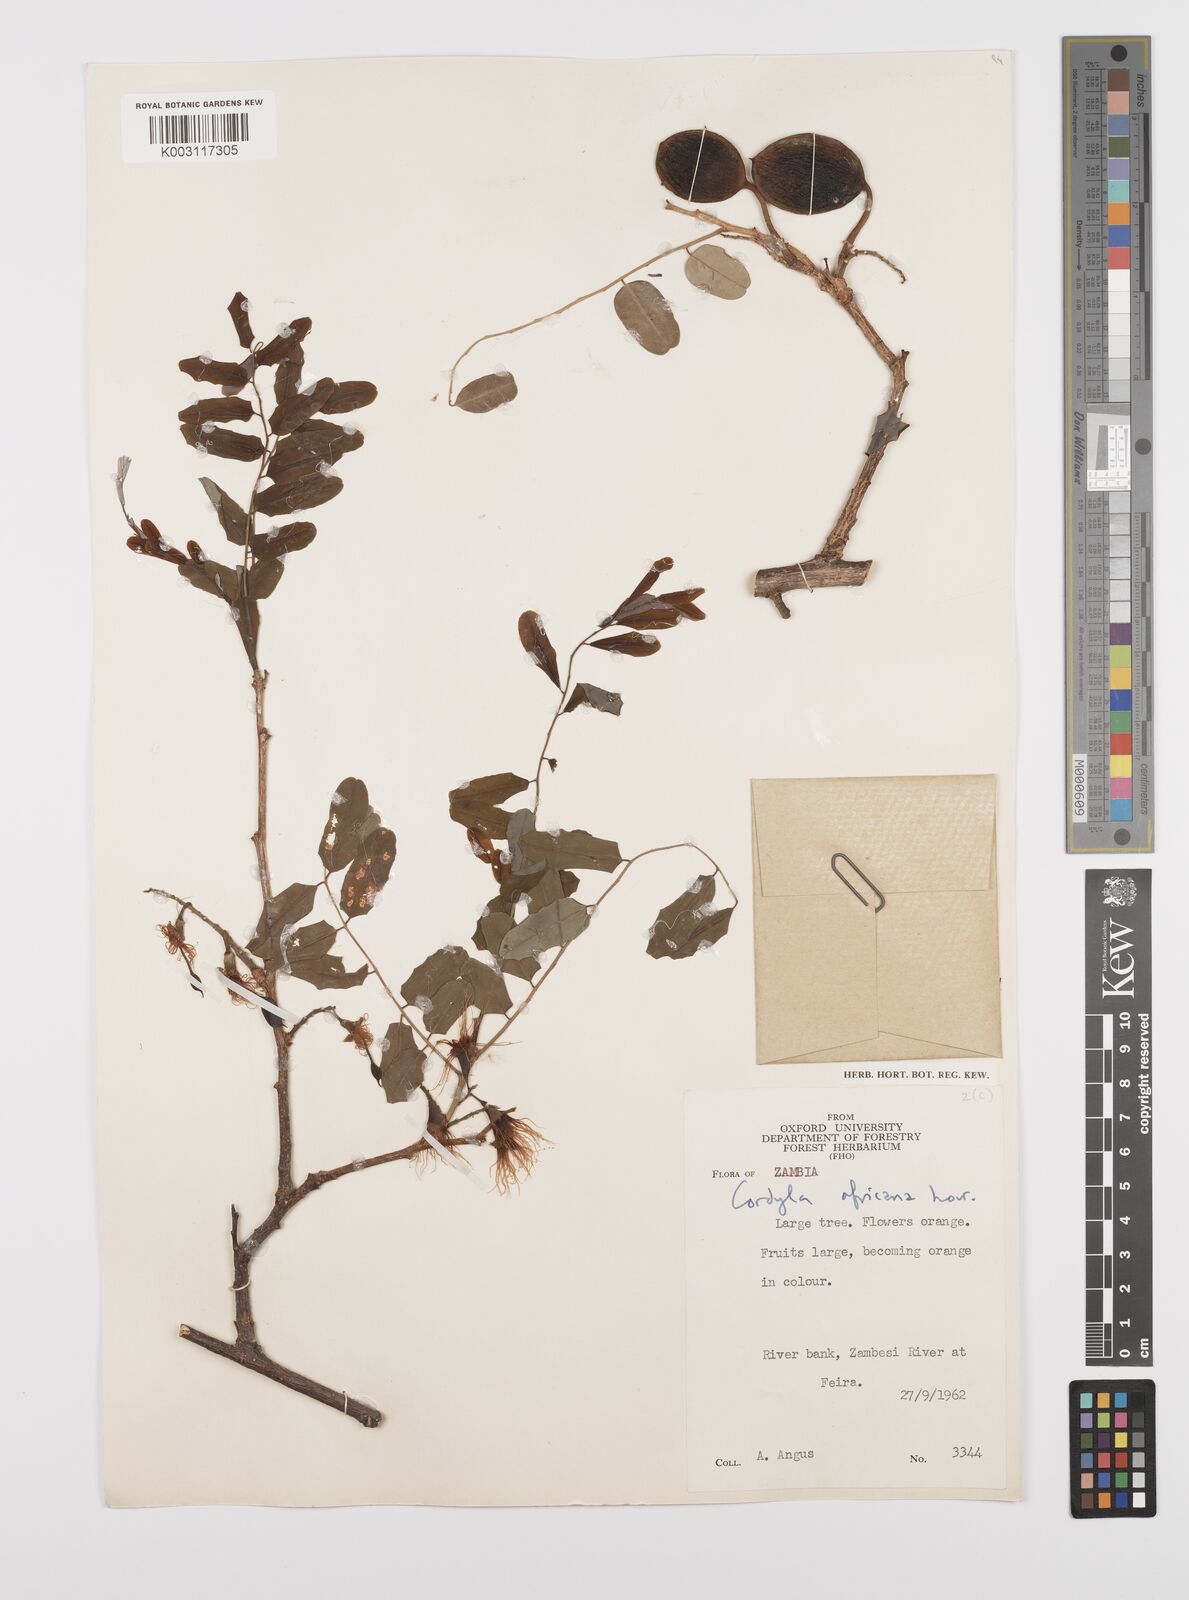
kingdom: Plantae
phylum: Tracheophyta
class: Magnoliopsida
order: Fabales
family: Fabaceae
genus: Cordyla
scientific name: Cordyla africana
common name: Wild mango
